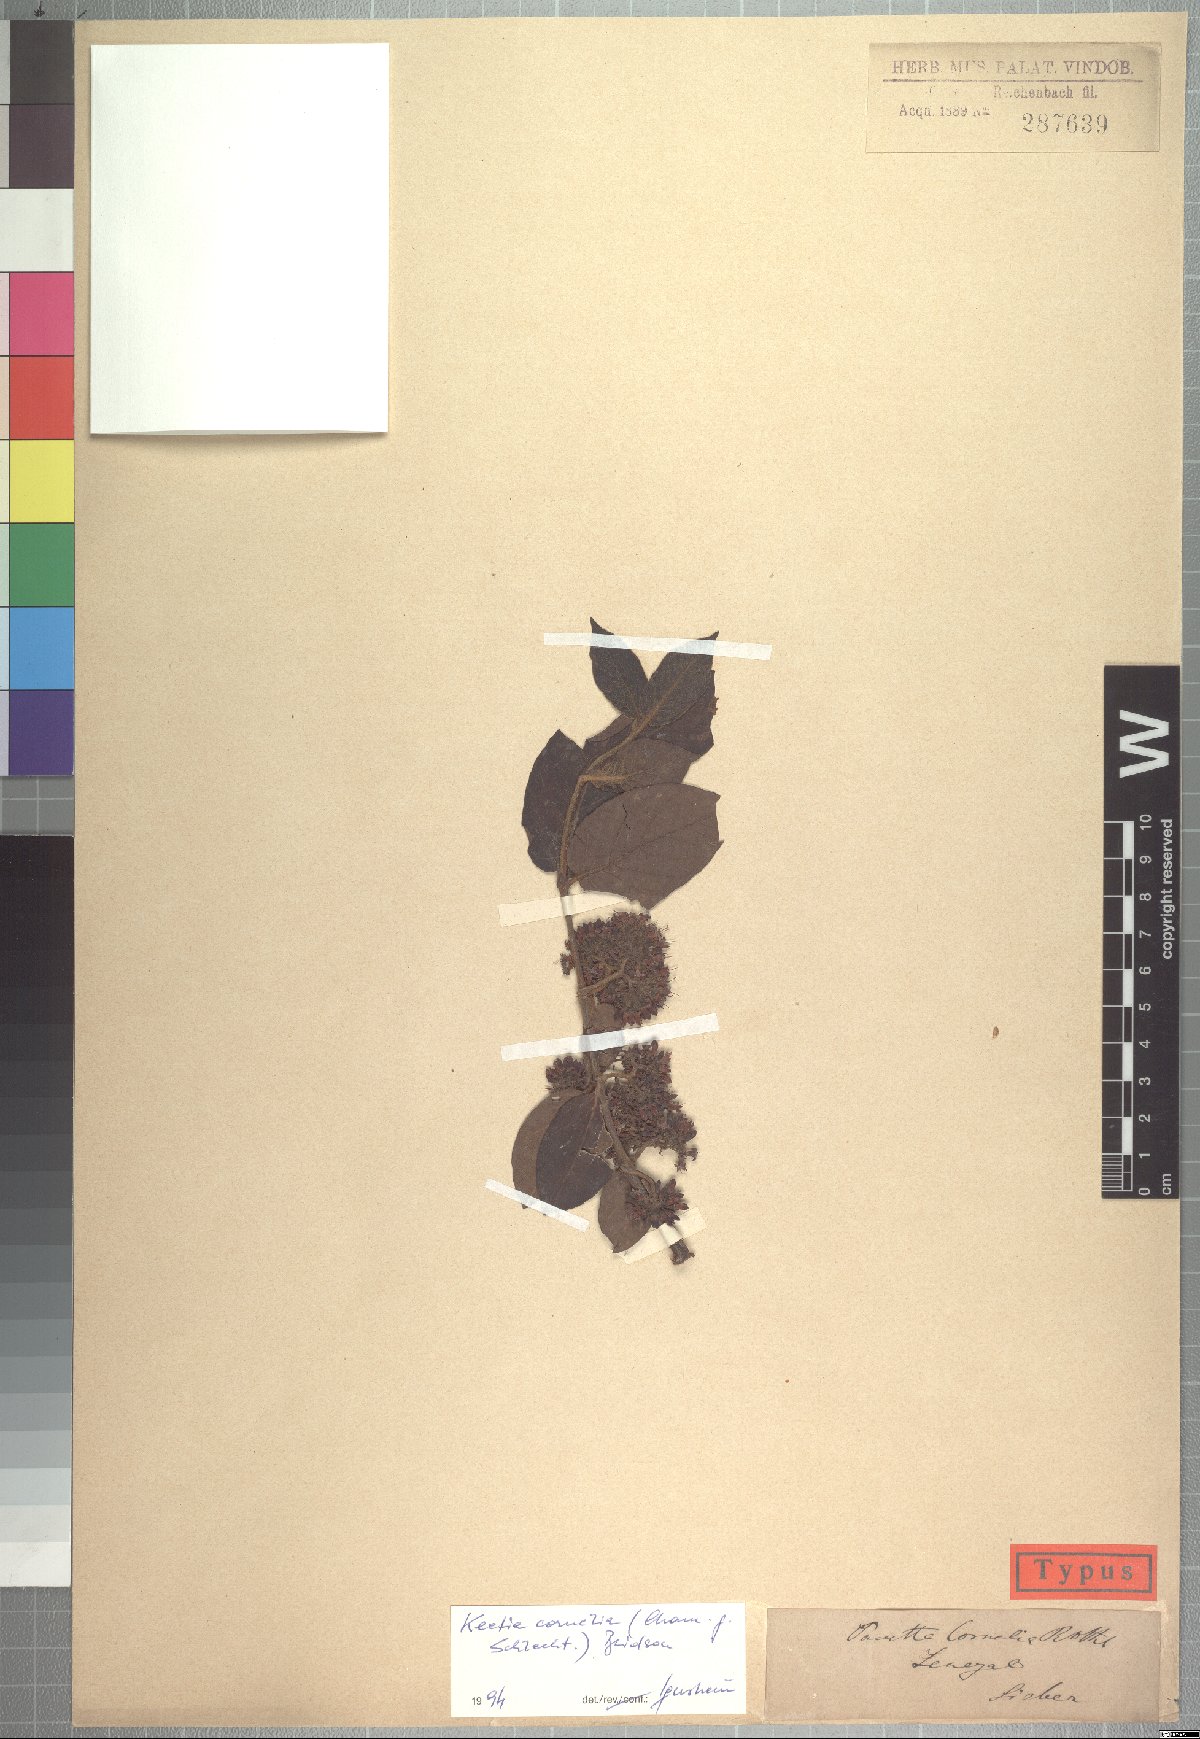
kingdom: Plantae
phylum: Tracheophyta
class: Magnoliopsida
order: Gentianales
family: Rubiaceae
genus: Keetia
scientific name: Keetia cornelia
